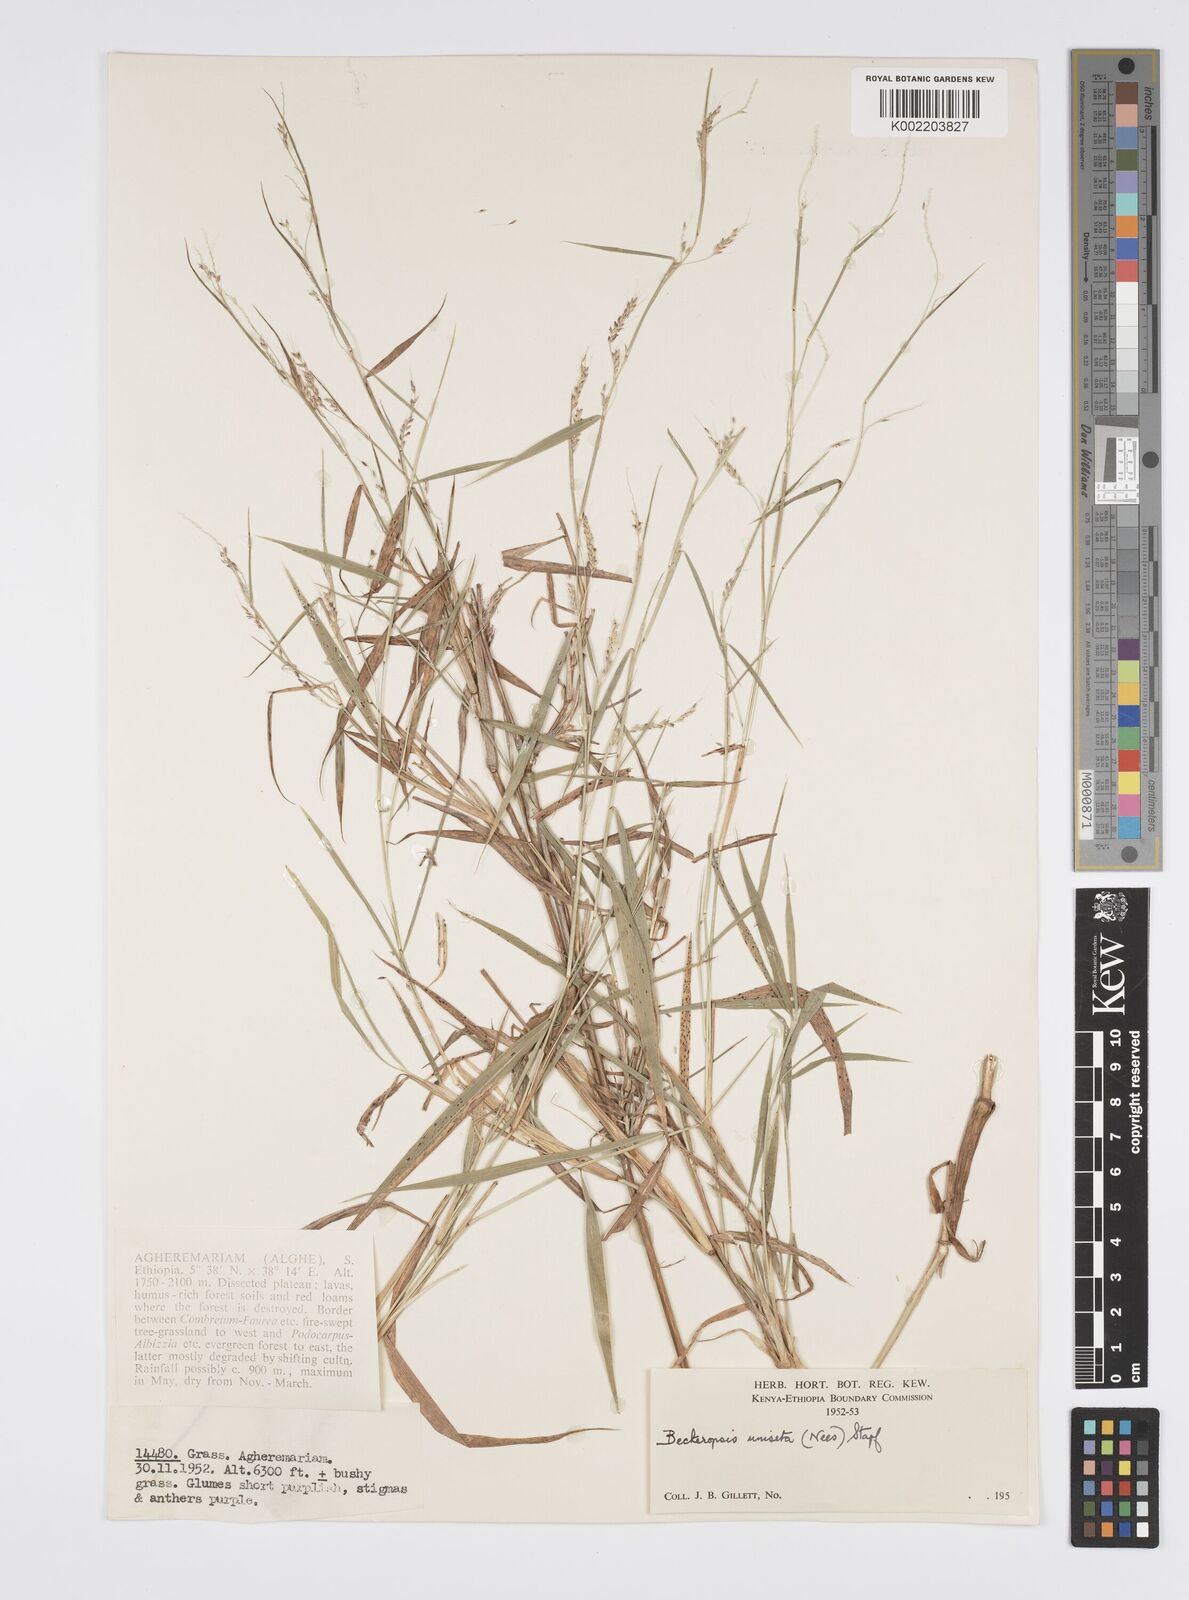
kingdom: Plantae
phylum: Tracheophyta
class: Liliopsida
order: Poales
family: Poaceae
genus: Cenchrus
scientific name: Cenchrus unisetus
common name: Natal grass
